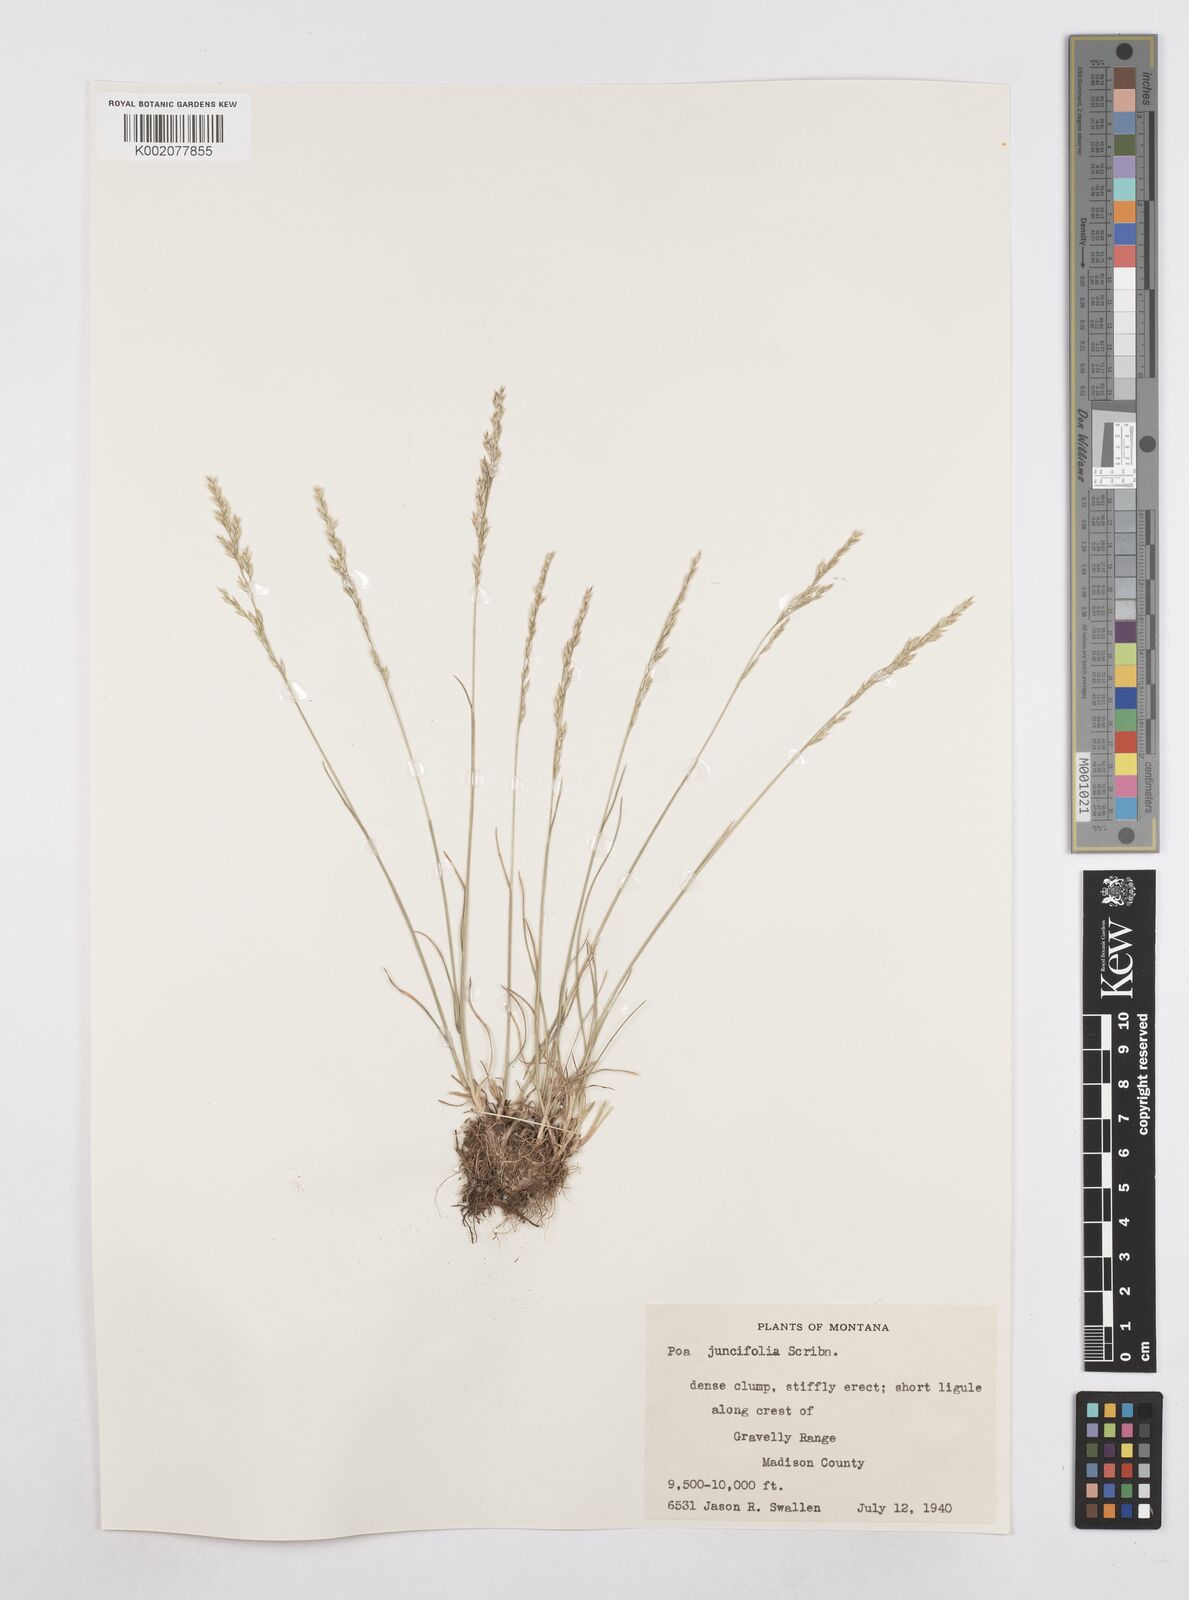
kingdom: Plantae
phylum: Tracheophyta
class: Liliopsida
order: Poales
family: Poaceae
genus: Poa
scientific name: Poa secunda
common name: Sandberg bluegrass
